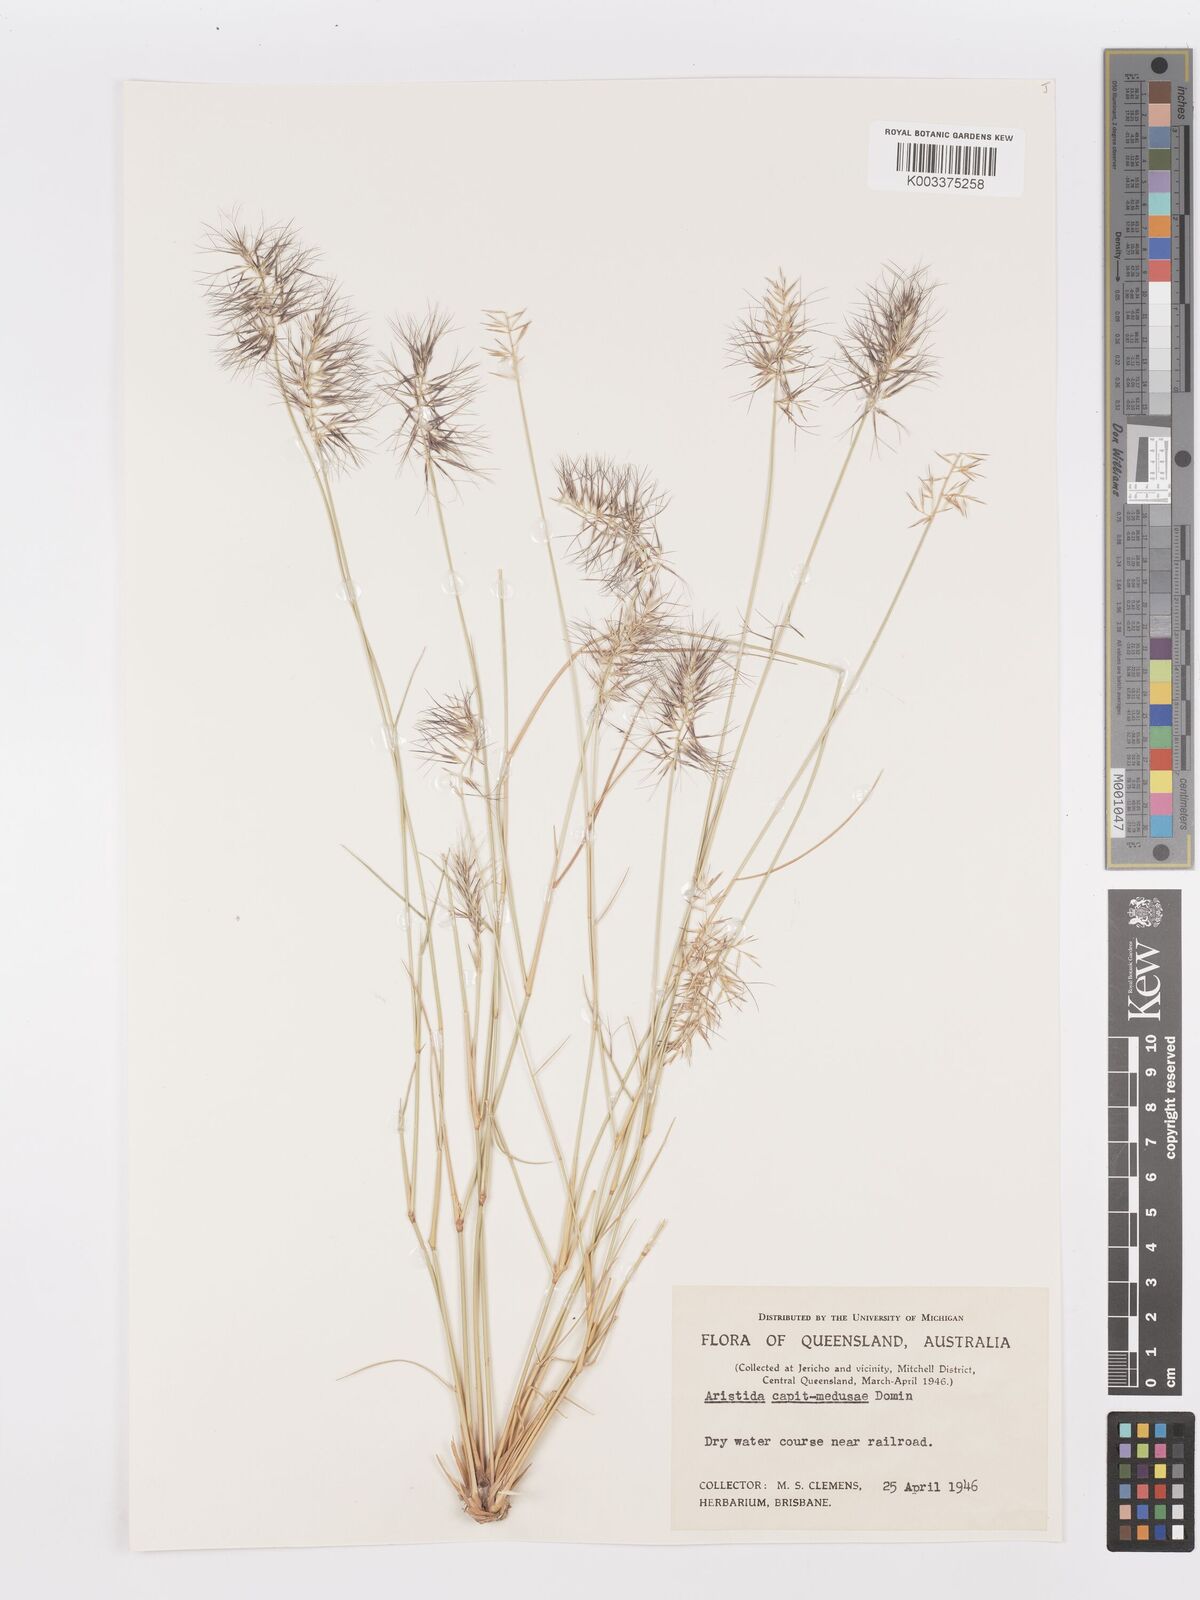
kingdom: Plantae
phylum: Tracheophyta
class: Liliopsida
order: Poales
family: Poaceae
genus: Aristida
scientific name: Aristida caput-medusae
